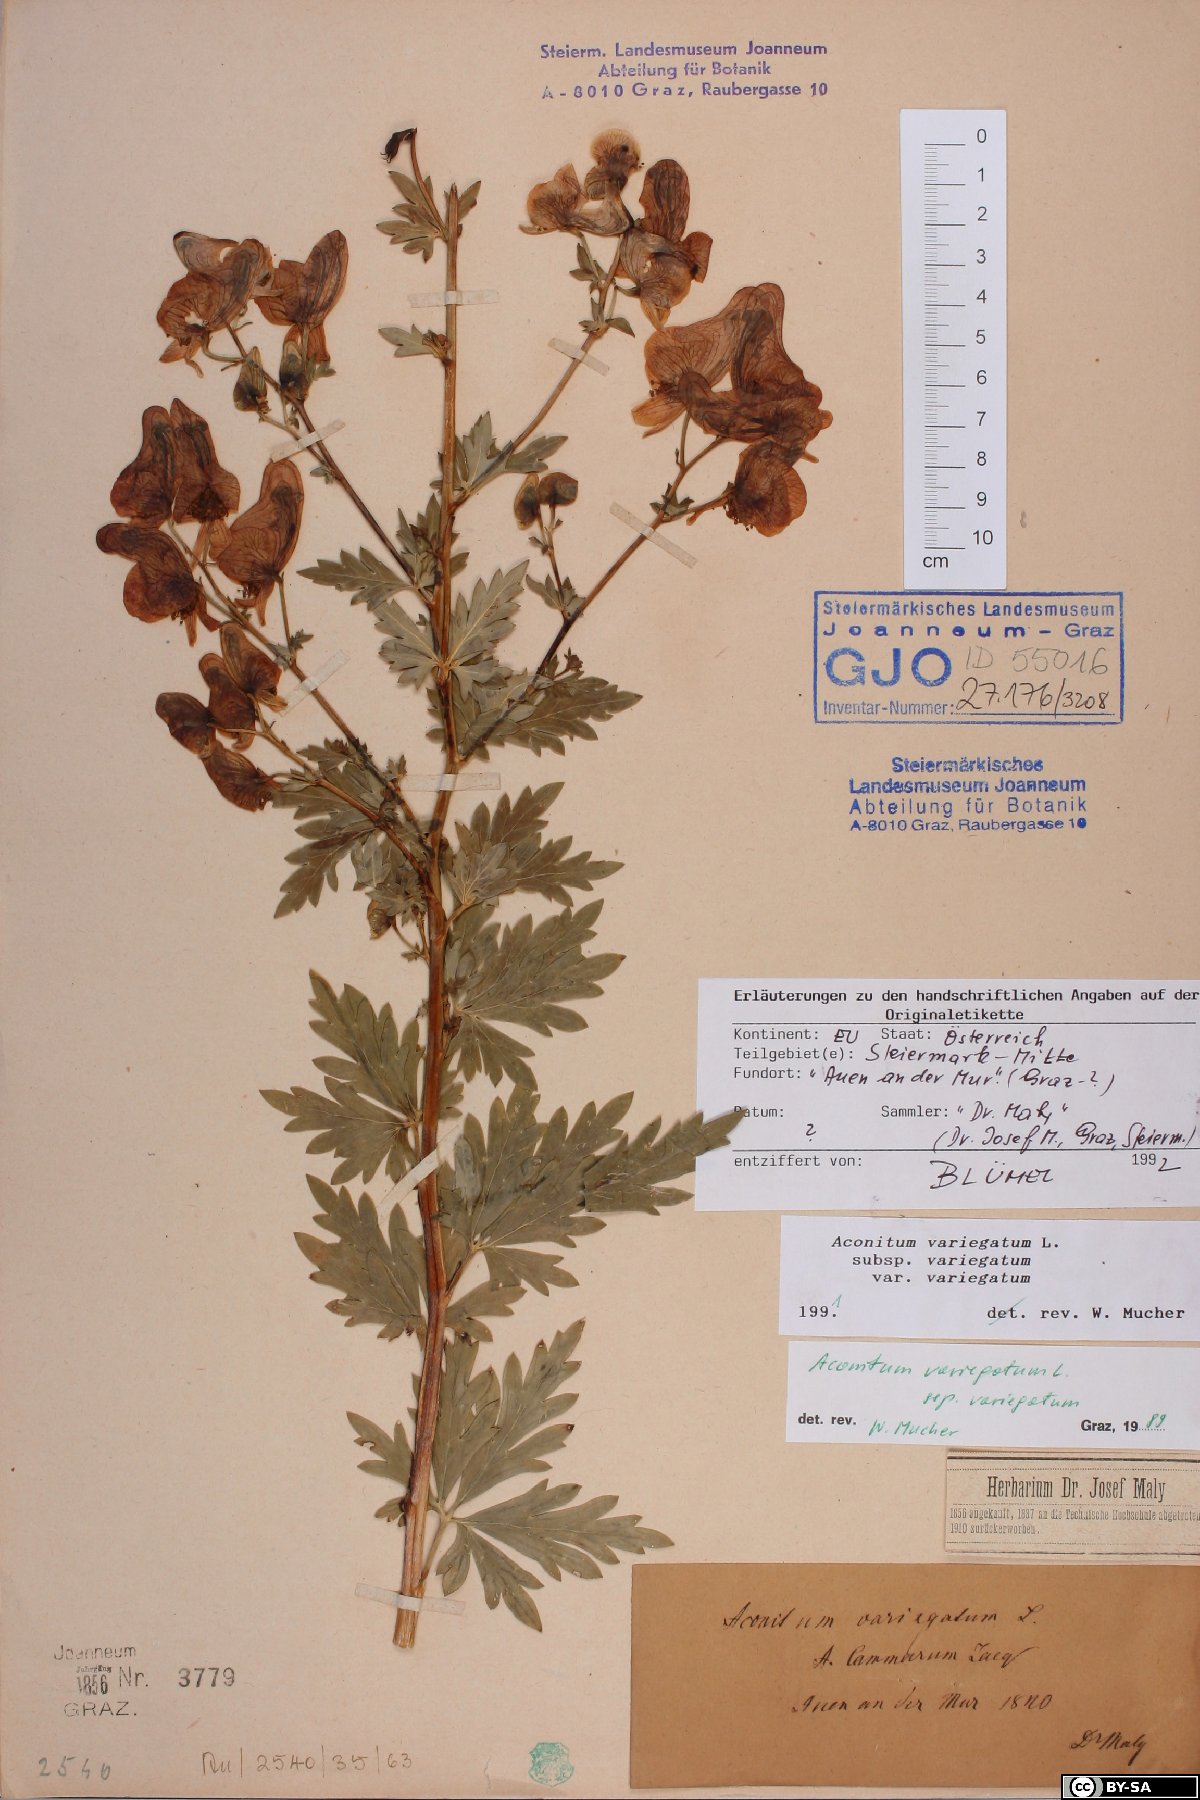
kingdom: Plantae
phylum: Tracheophyta
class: Magnoliopsida
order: Ranunculales
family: Ranunculaceae
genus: Aconitum
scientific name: Aconitum variegatum
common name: Manchurian monkshood
